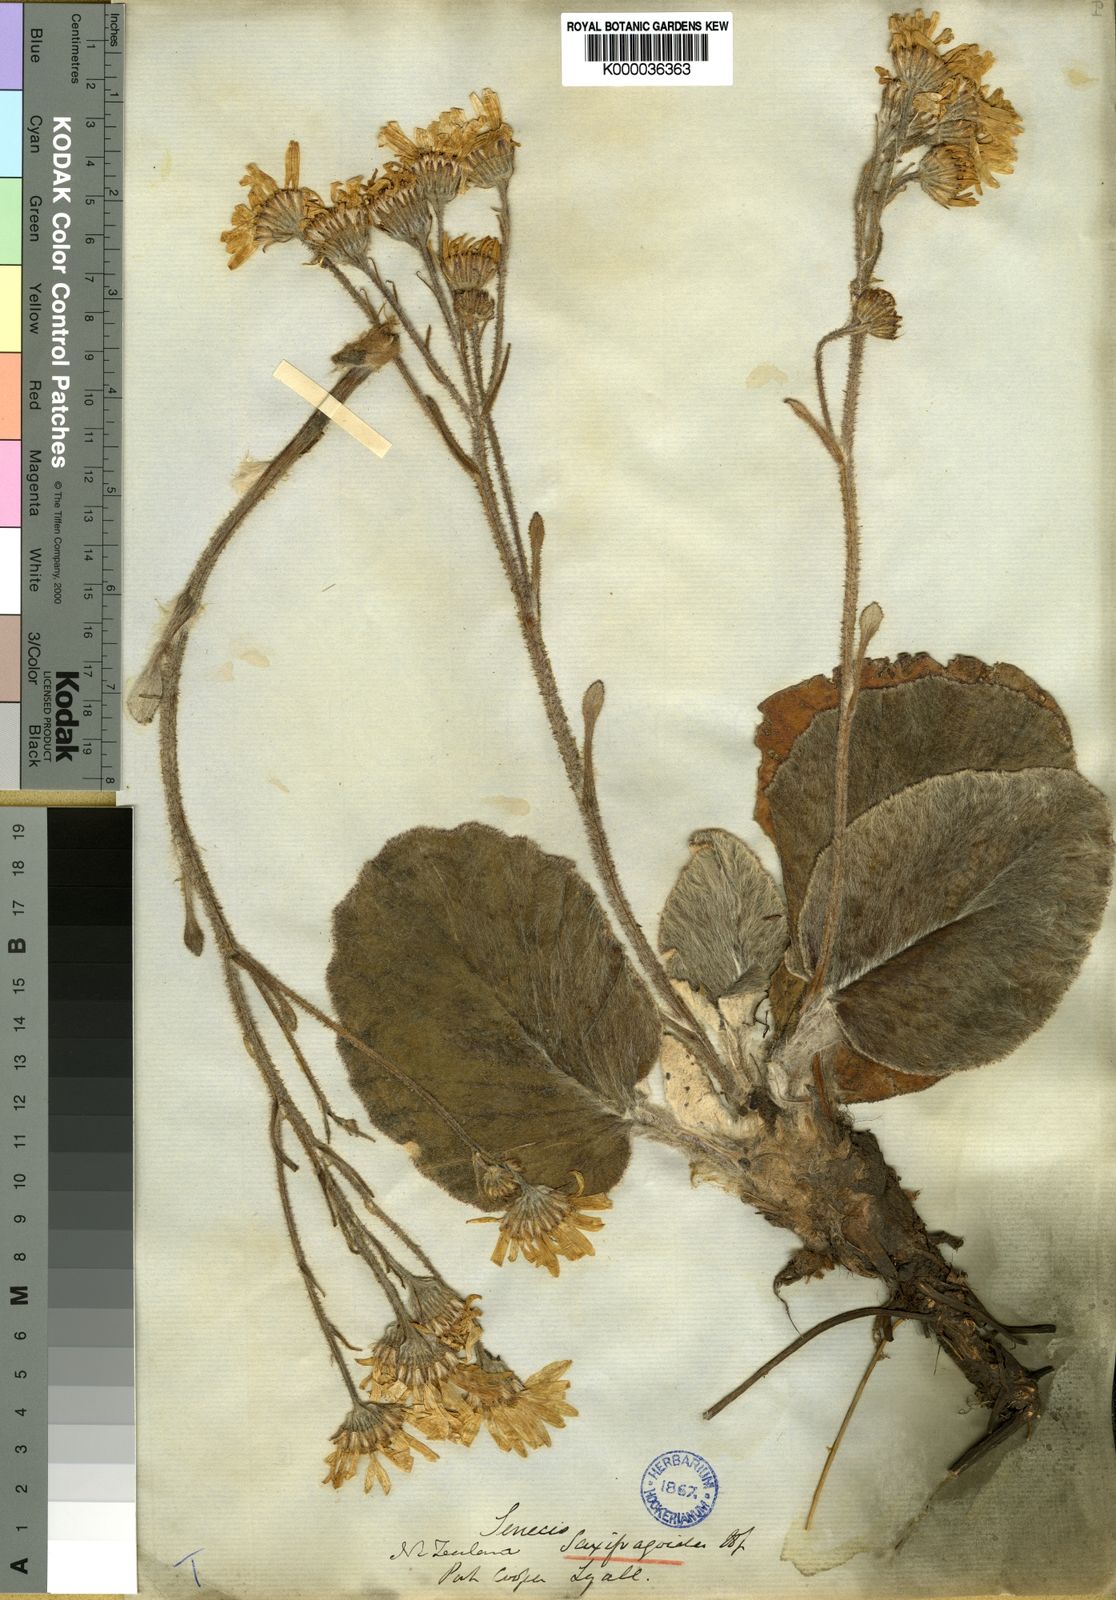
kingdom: Plantae
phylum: Tracheophyta
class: Magnoliopsida
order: Asterales
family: Asteraceae
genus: Brachyglottis
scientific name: Brachyglottis lagopus
